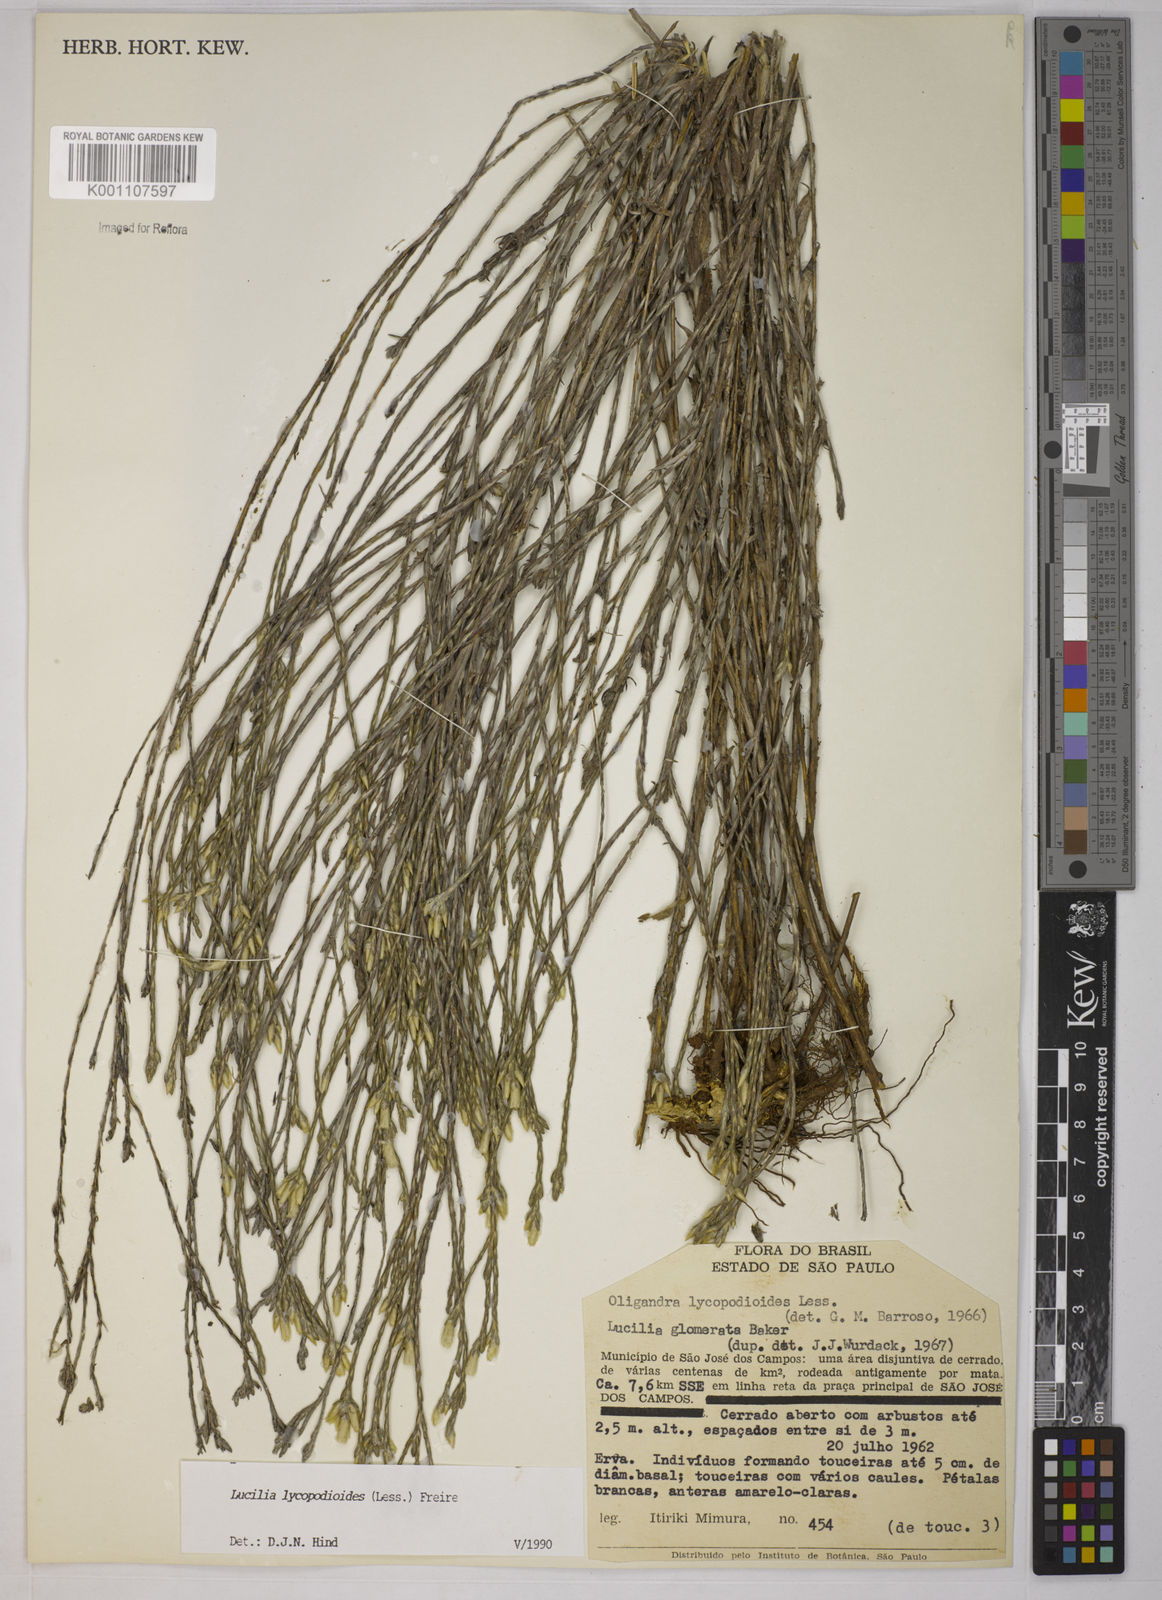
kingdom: Plantae
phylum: Tracheophyta
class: Magnoliopsida
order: Asterales
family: Asteraceae
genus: Lucilia
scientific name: Lucilia lycopodioides
